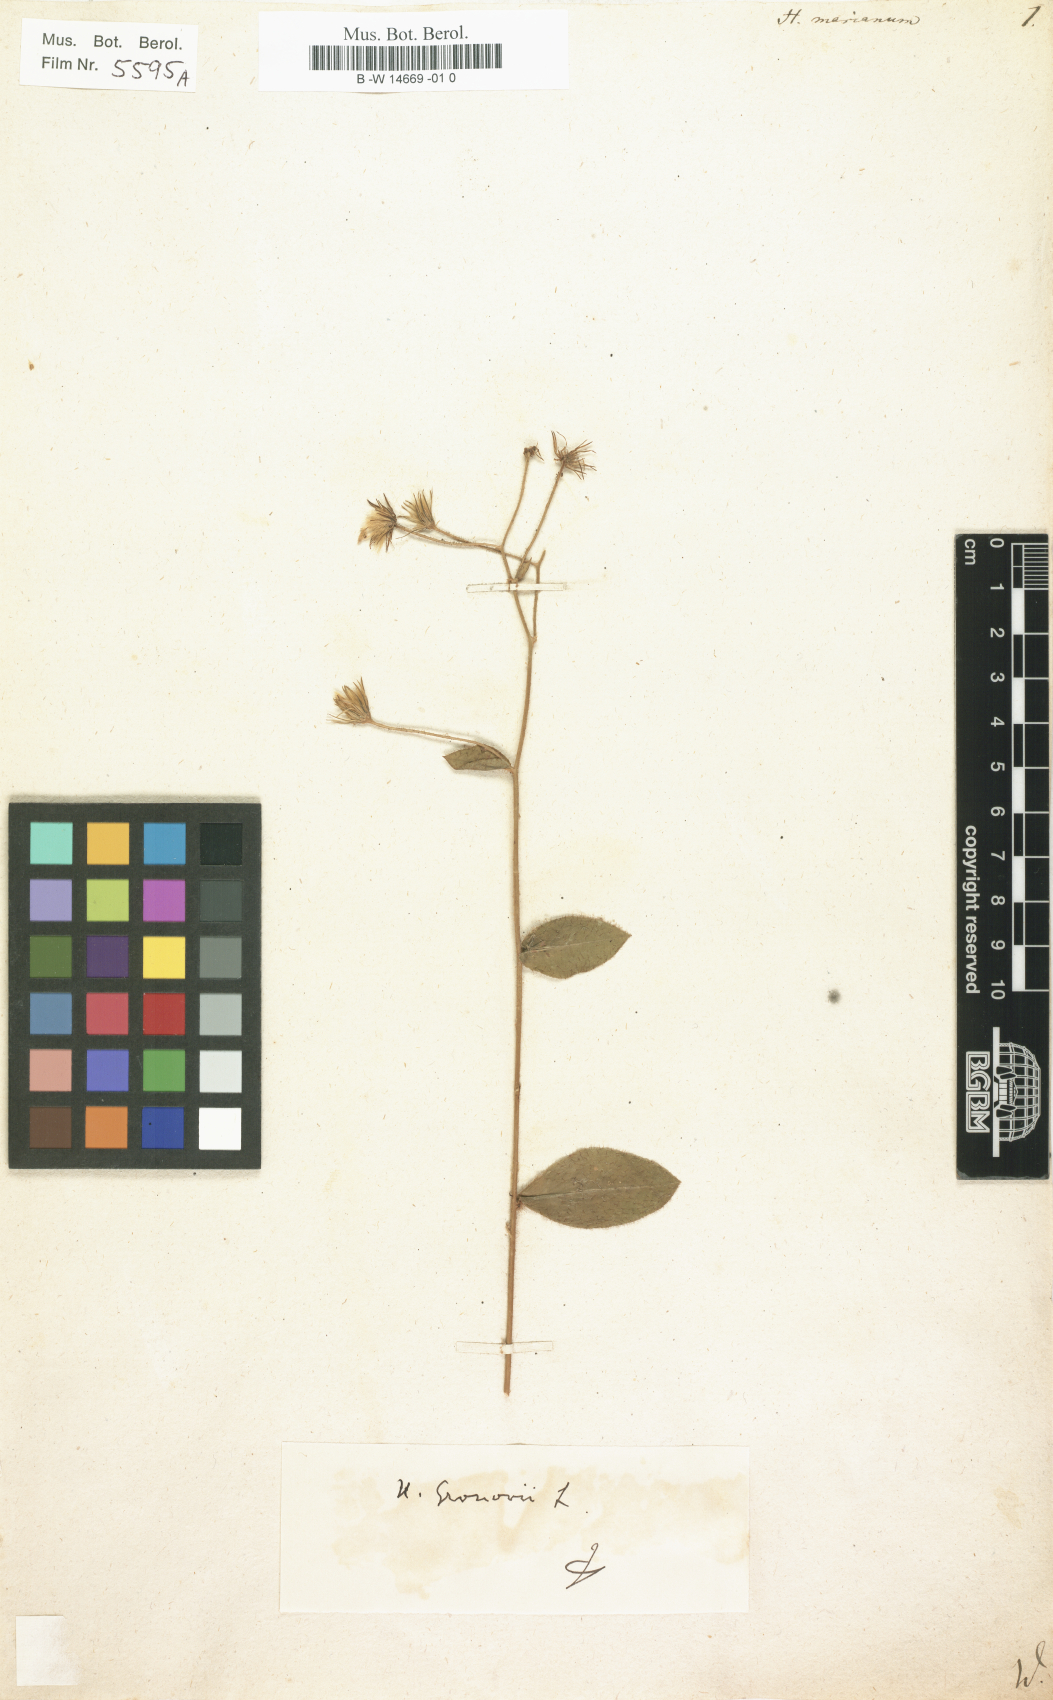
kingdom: Plantae
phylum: Tracheophyta
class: Magnoliopsida
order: Asterales
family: Asteraceae
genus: Hieracium
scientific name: Hieracium marianum
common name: Maryland hawkweed
